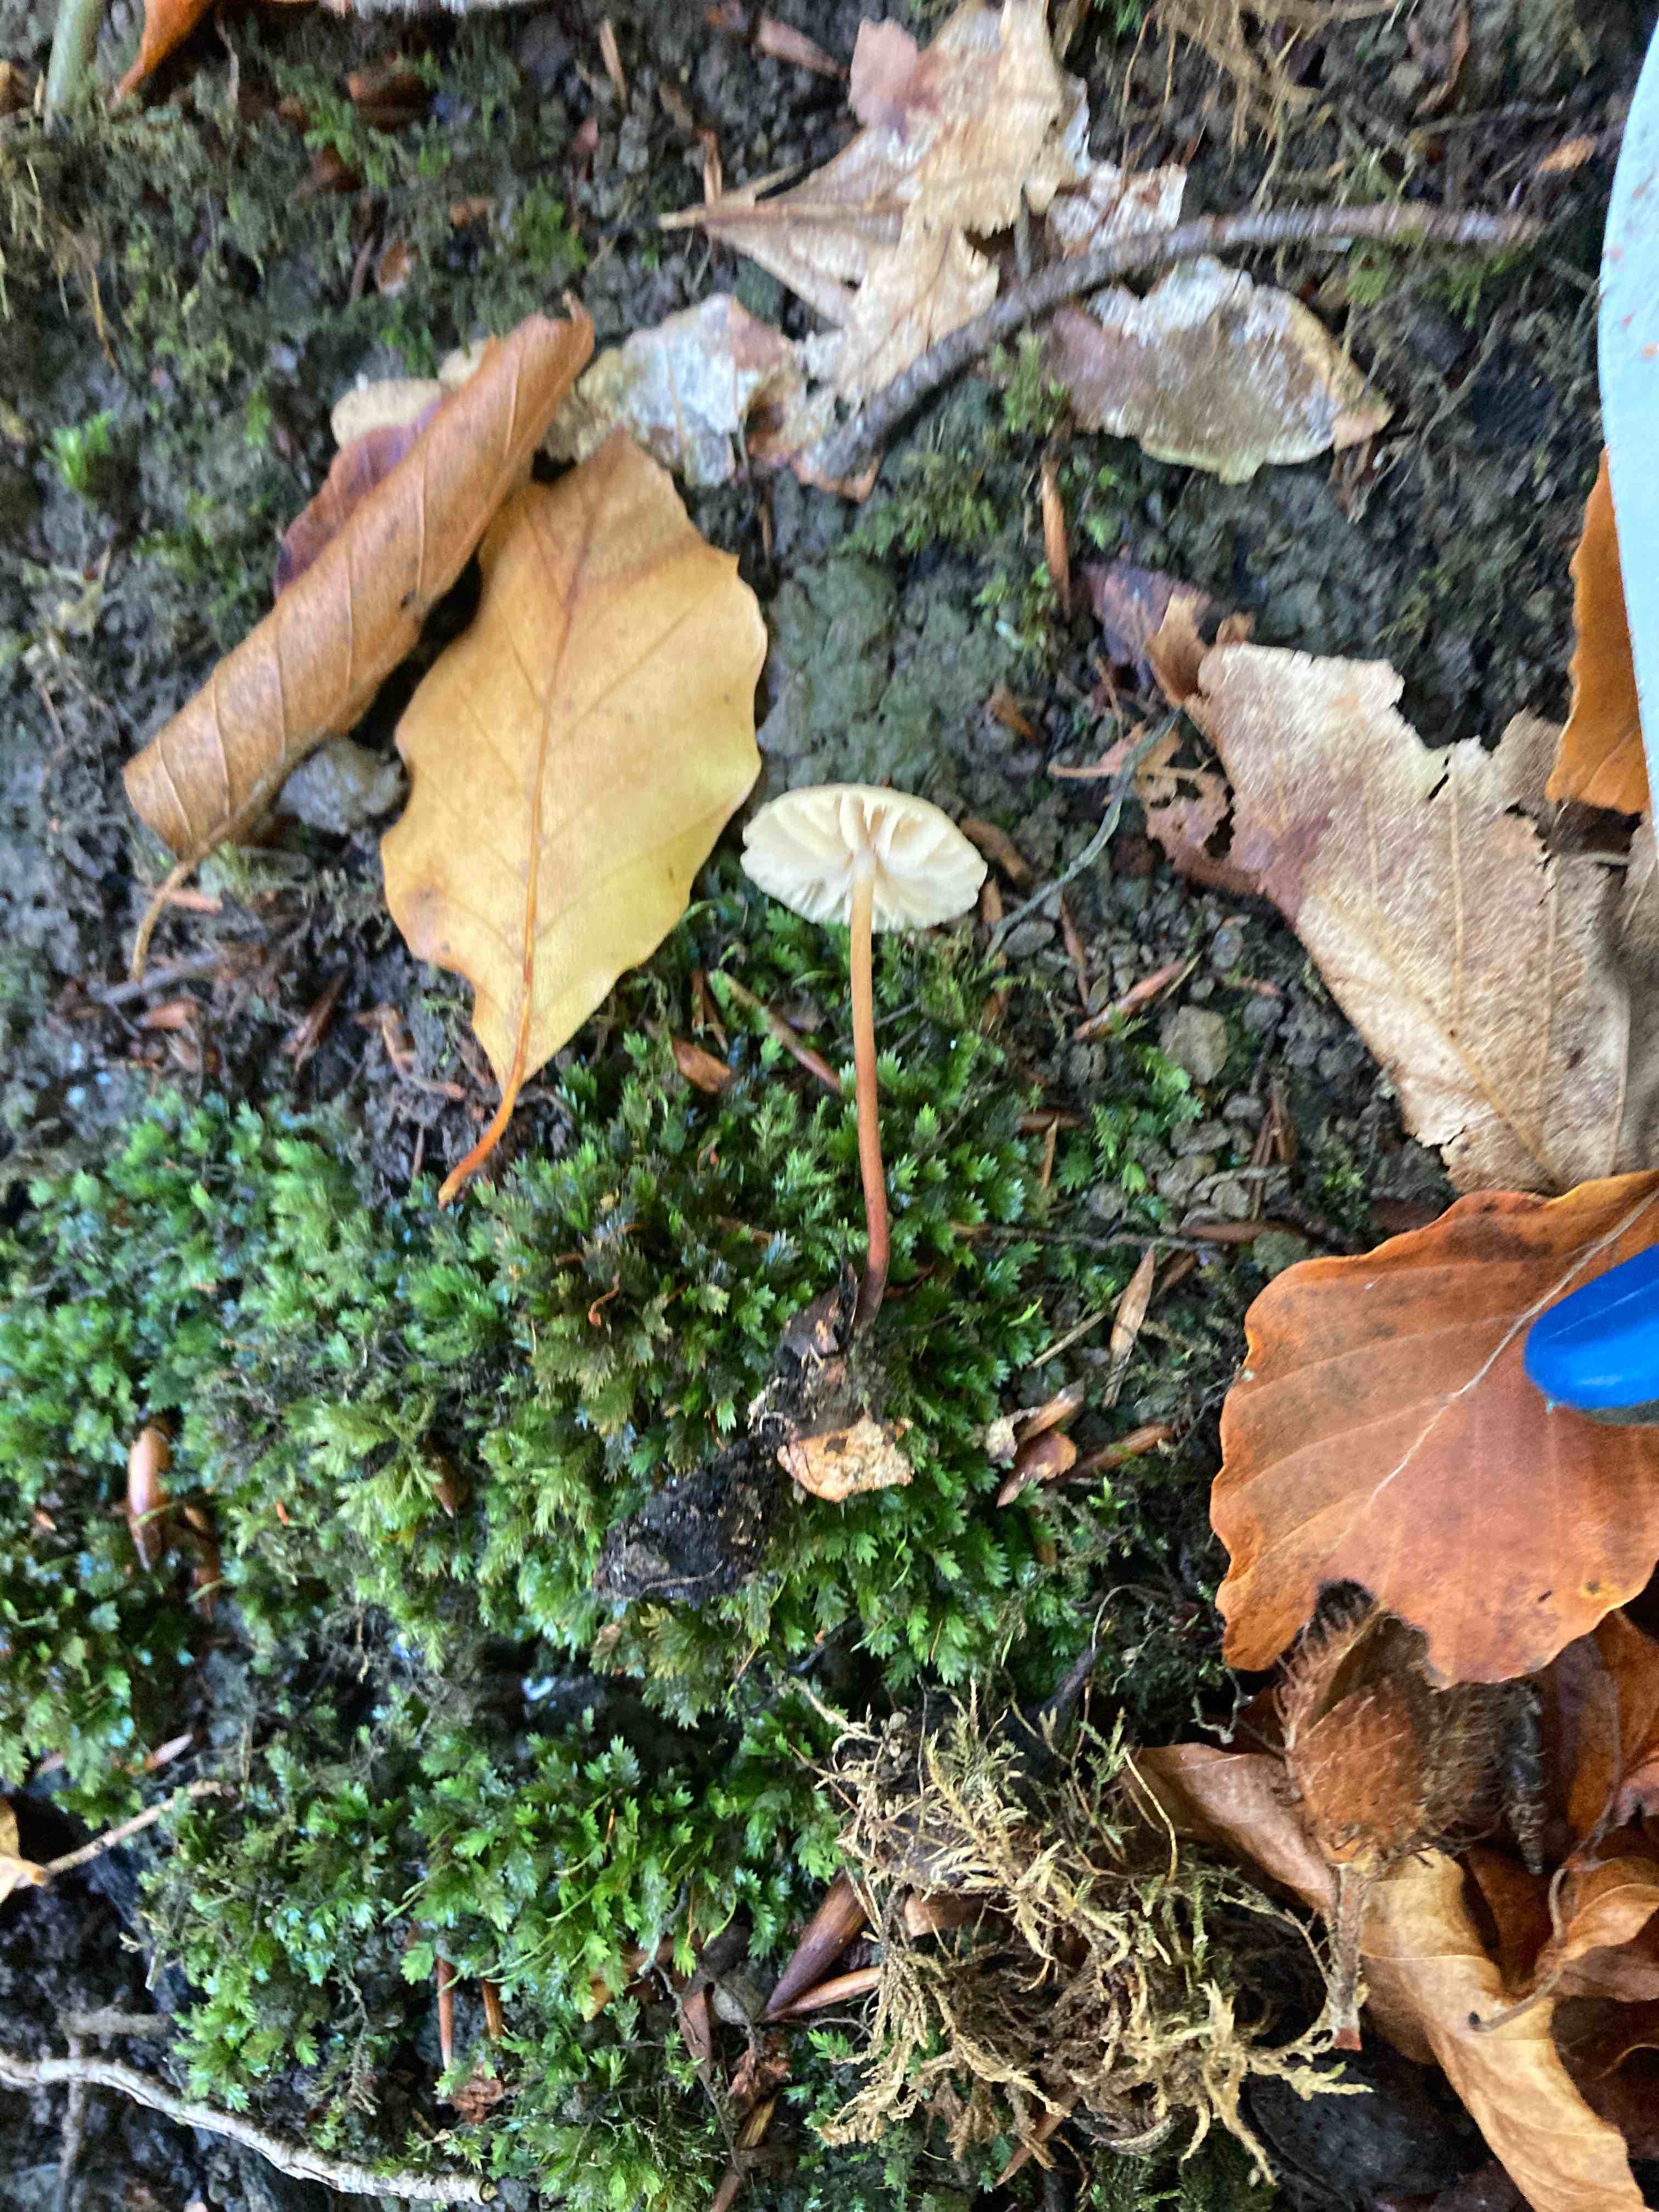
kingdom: Fungi
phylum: Basidiomycota
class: Agaricomycetes
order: Agaricales
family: Marasmiaceae
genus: Marasmius
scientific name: Marasmius torquescens
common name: filtfodet bruskhat
